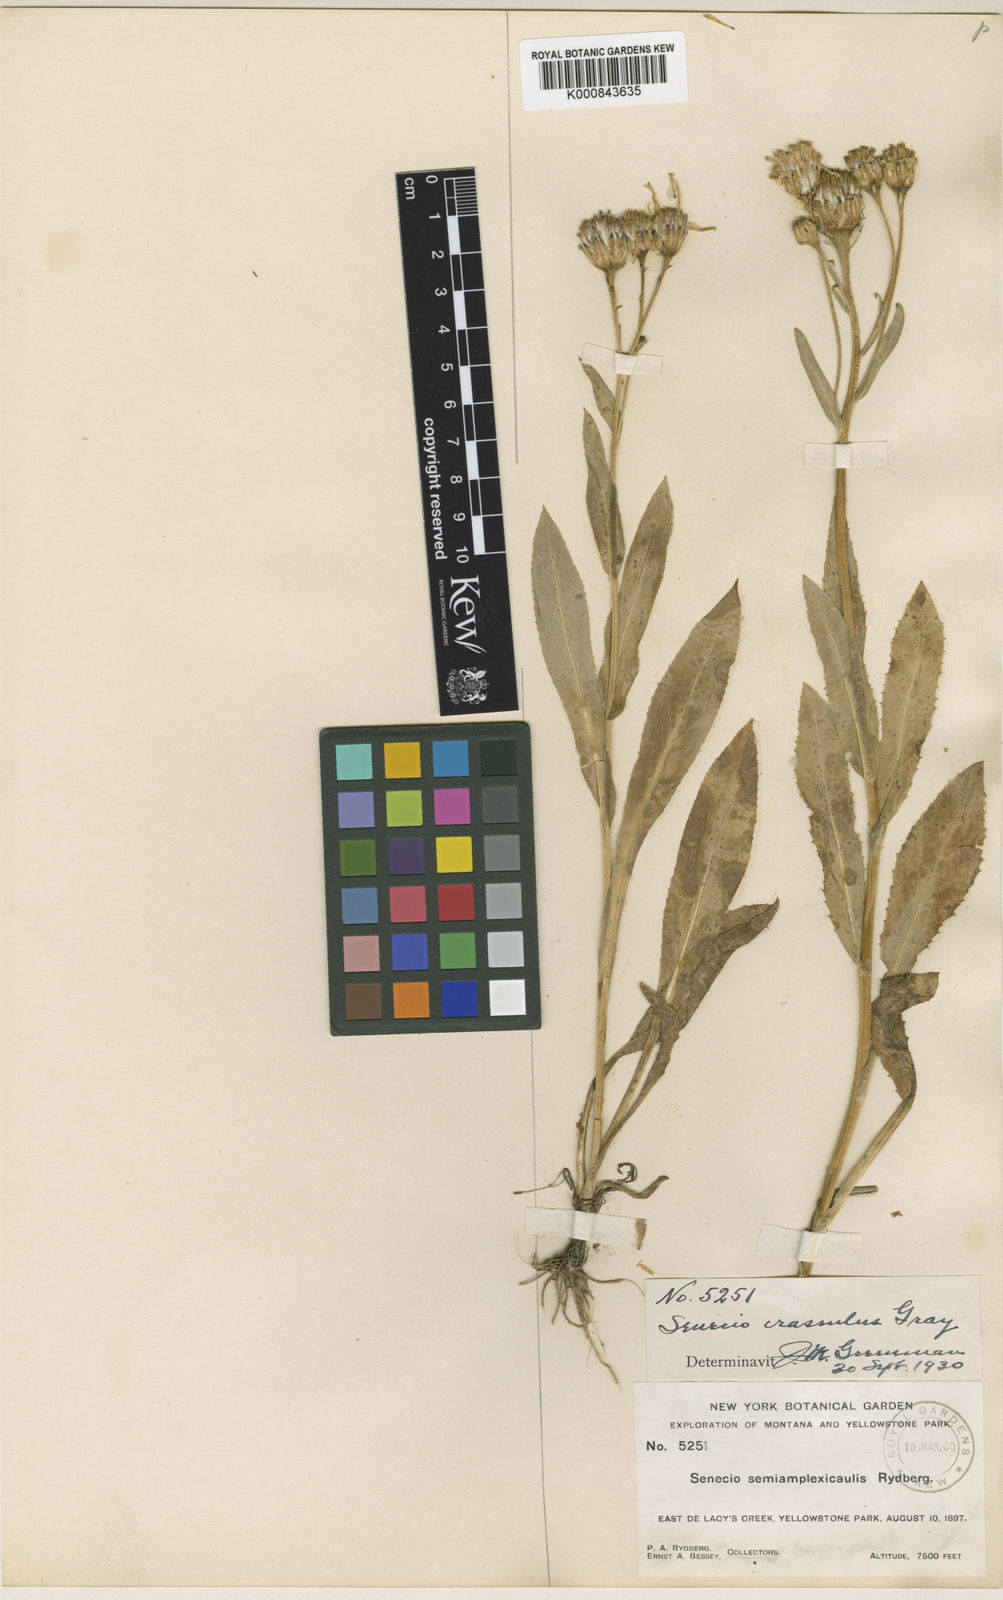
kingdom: Plantae
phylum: Tracheophyta
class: Magnoliopsida
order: Asterales
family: Asteraceae
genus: Senecio
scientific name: Senecio crassulus
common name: Mountain-meadow butterweed
